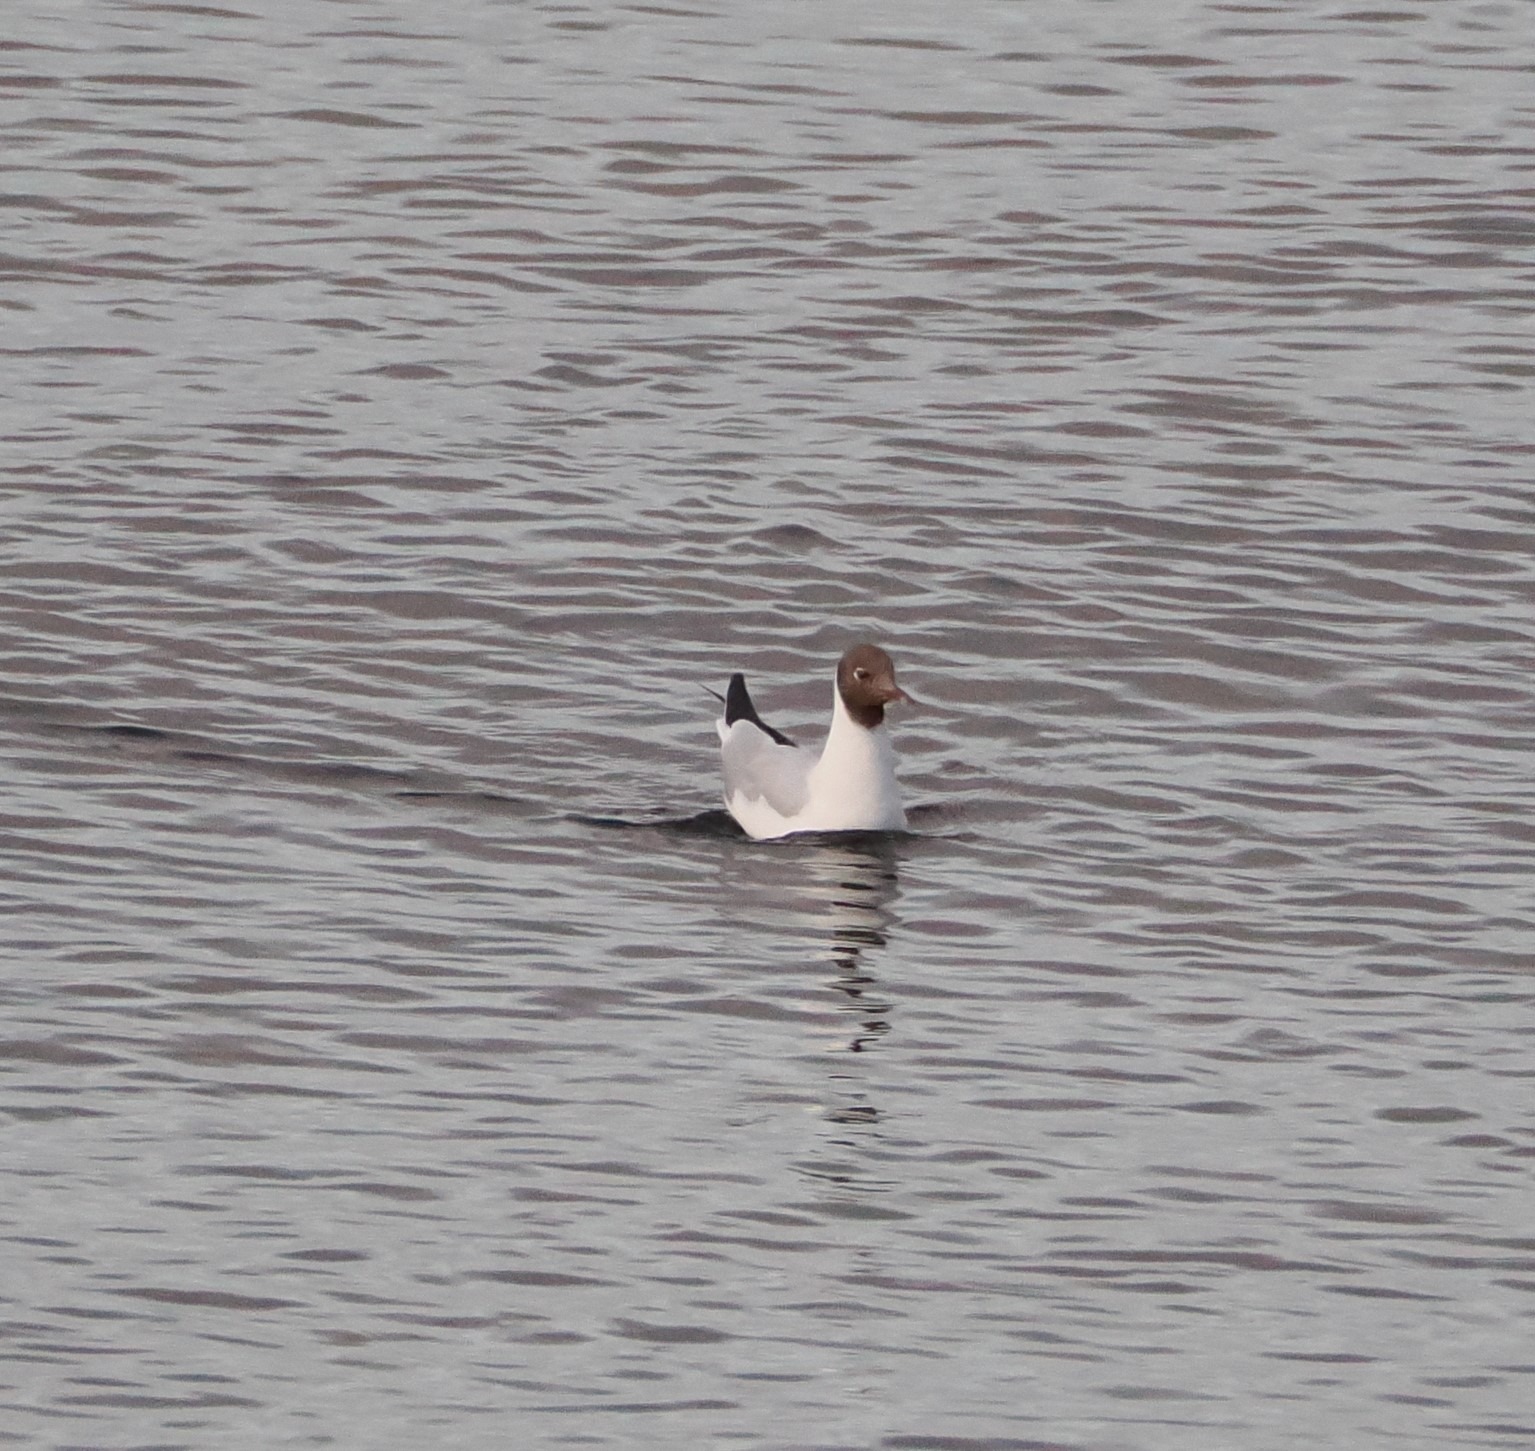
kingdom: Animalia
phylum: Chordata
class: Aves
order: Charadriiformes
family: Laridae
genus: Chroicocephalus
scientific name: Chroicocephalus ridibundus
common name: Hættemåge
